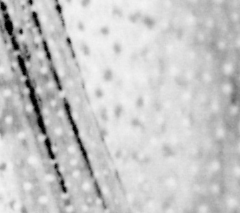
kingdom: Animalia
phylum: Chordata
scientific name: Chordata
